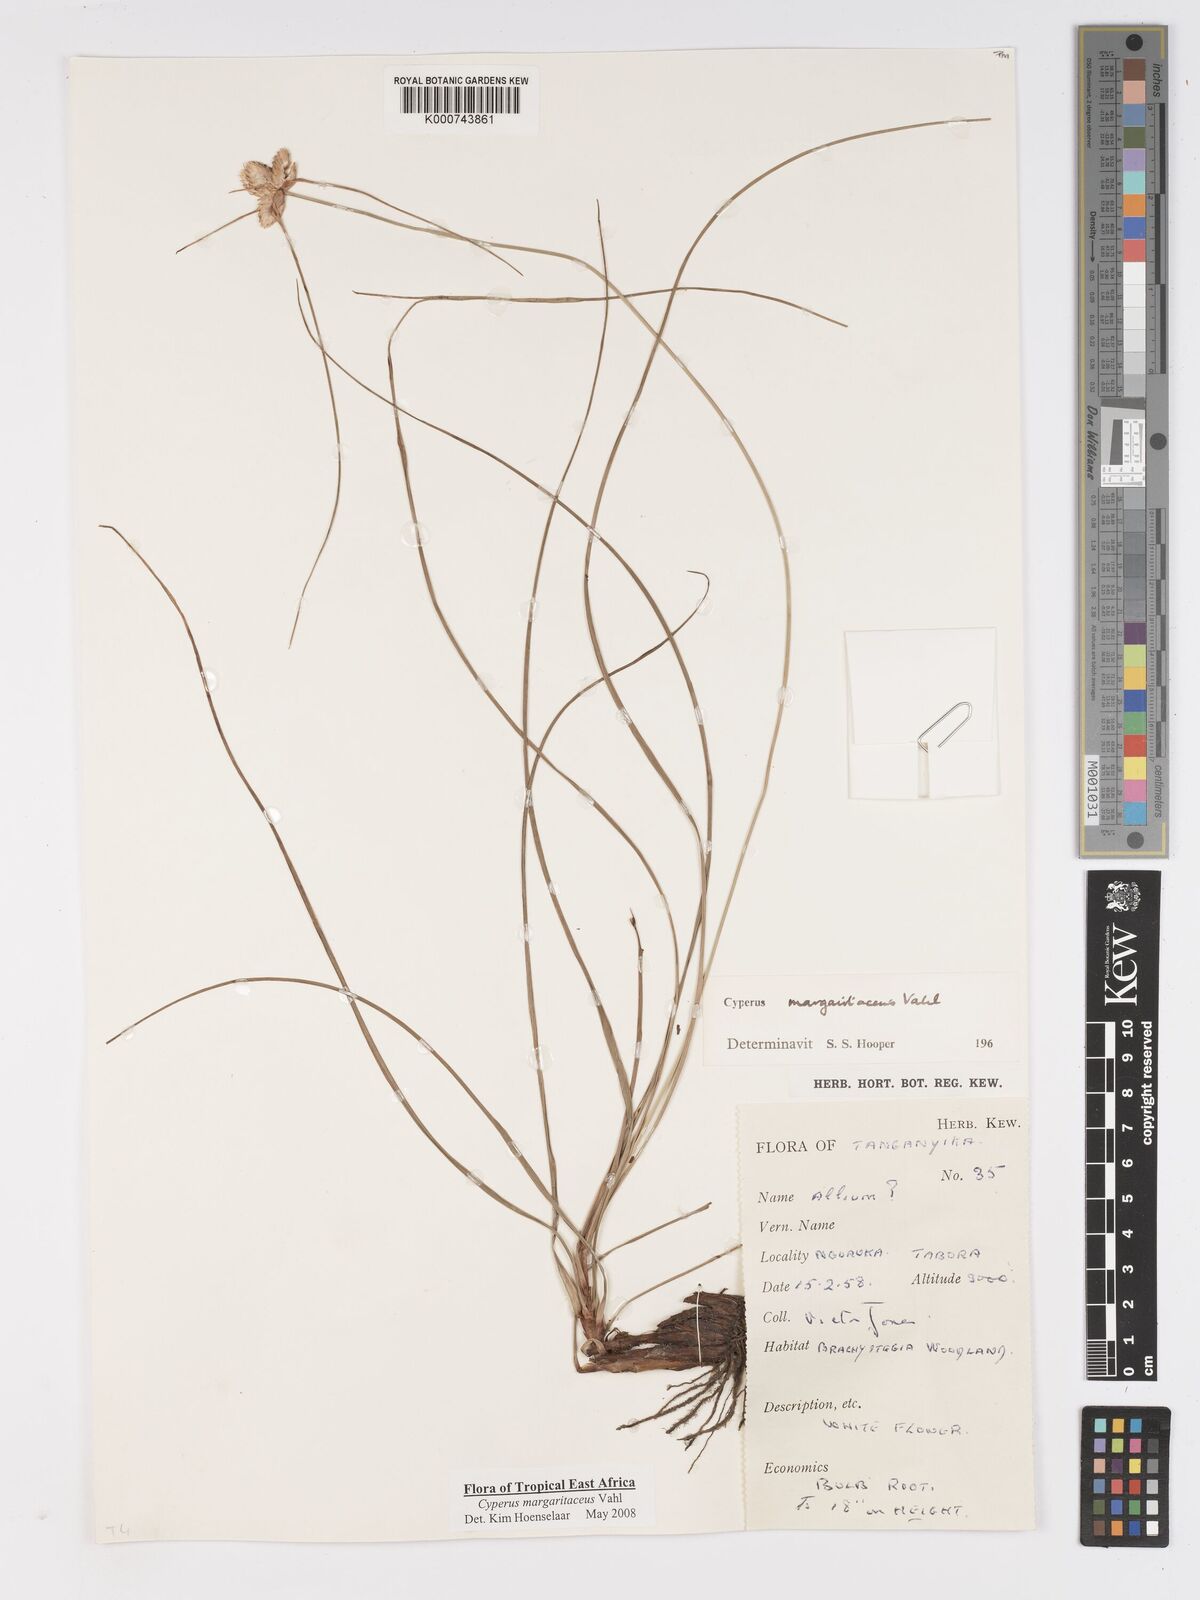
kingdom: Plantae
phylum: Tracheophyta
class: Liliopsida
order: Poales
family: Cyperaceae
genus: Cyperus
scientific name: Cyperus margaritaceus
